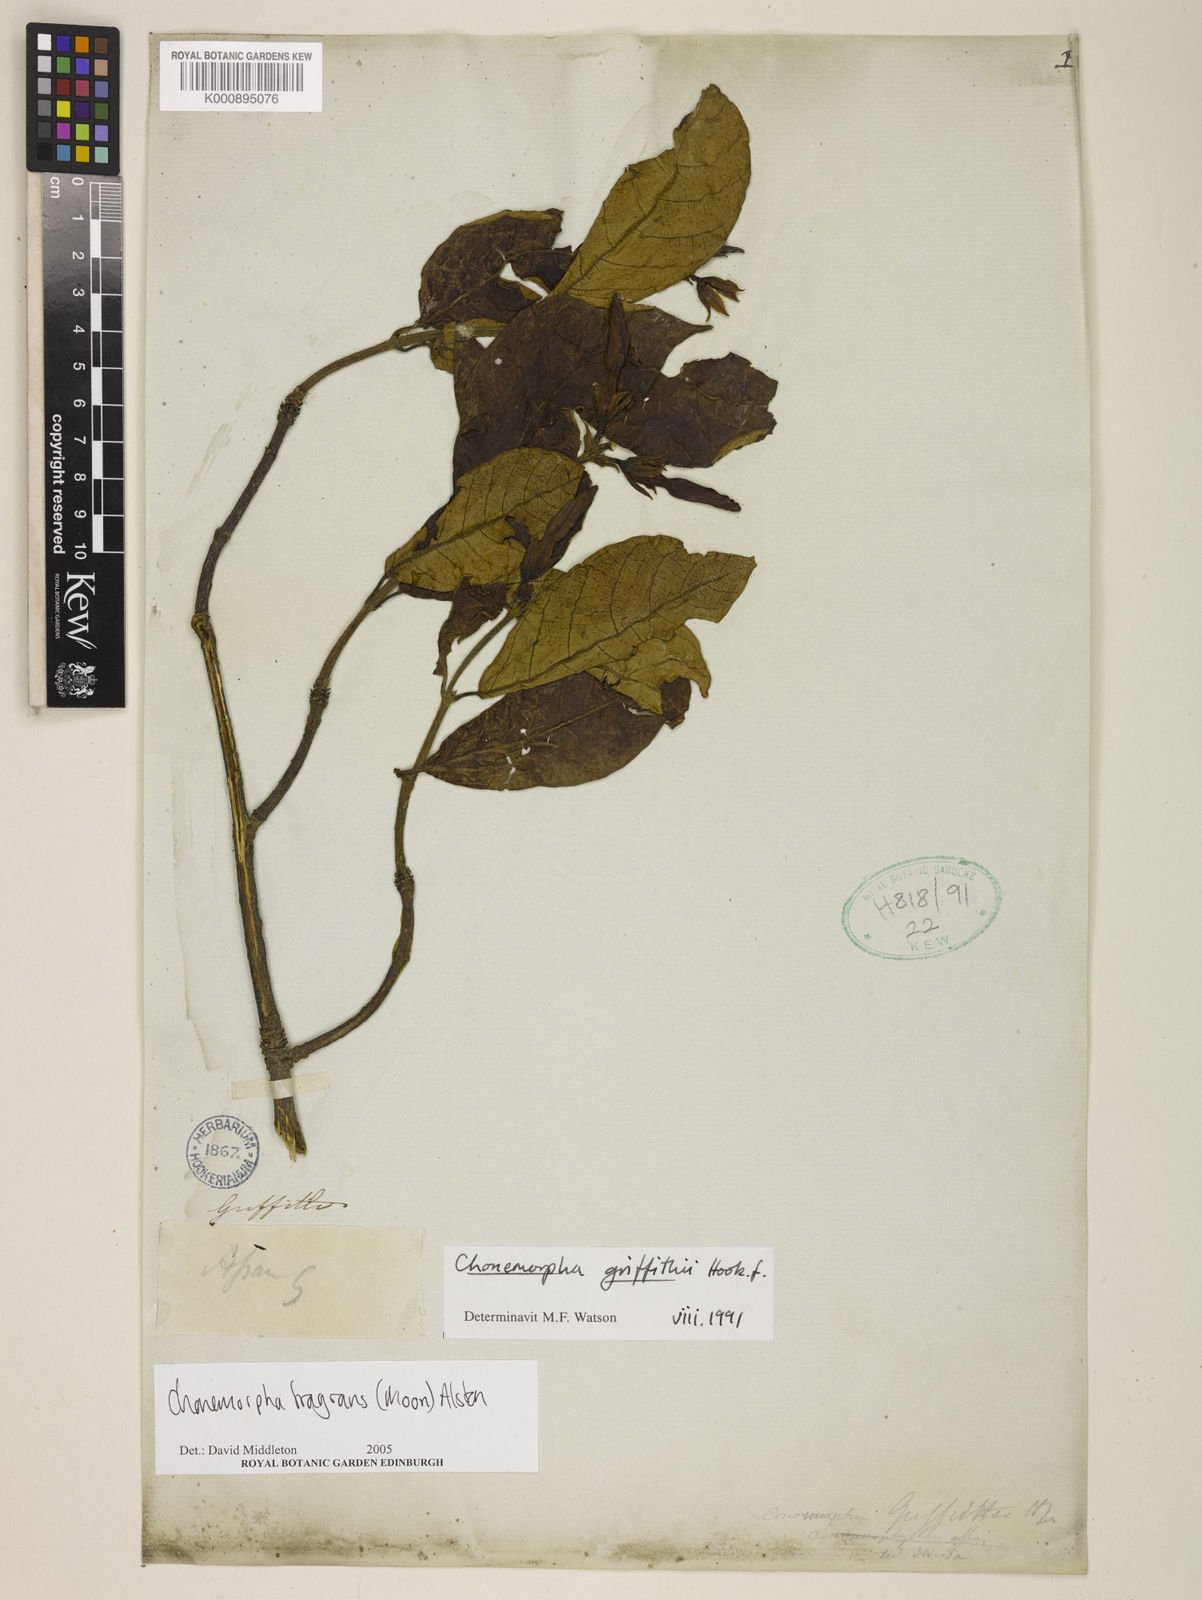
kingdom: Plantae
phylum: Tracheophyta
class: Magnoliopsida
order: Gentianales
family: Apocynaceae
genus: Chonemorpha
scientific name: Chonemorpha griffithii
